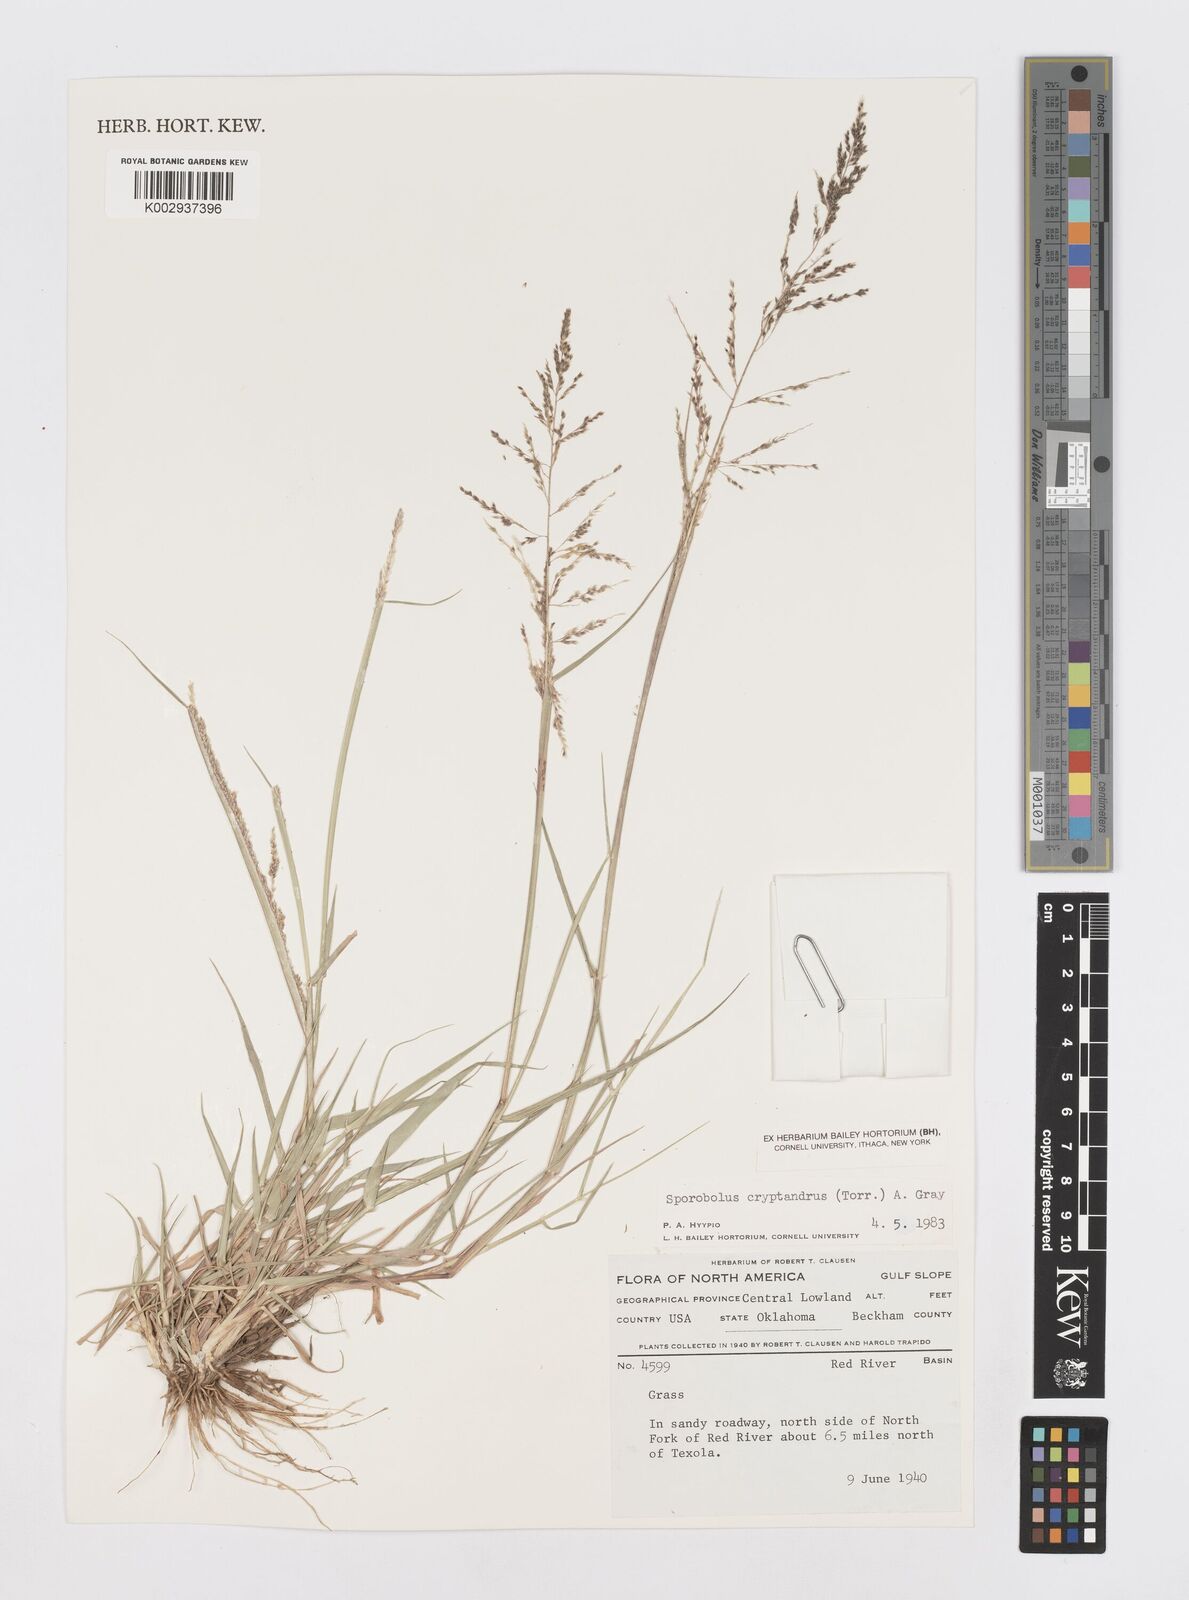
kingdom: Plantae
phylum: Tracheophyta
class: Liliopsida
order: Poales
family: Poaceae
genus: Sporobolus
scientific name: Sporobolus cryptandrus
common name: Sand dropseed
